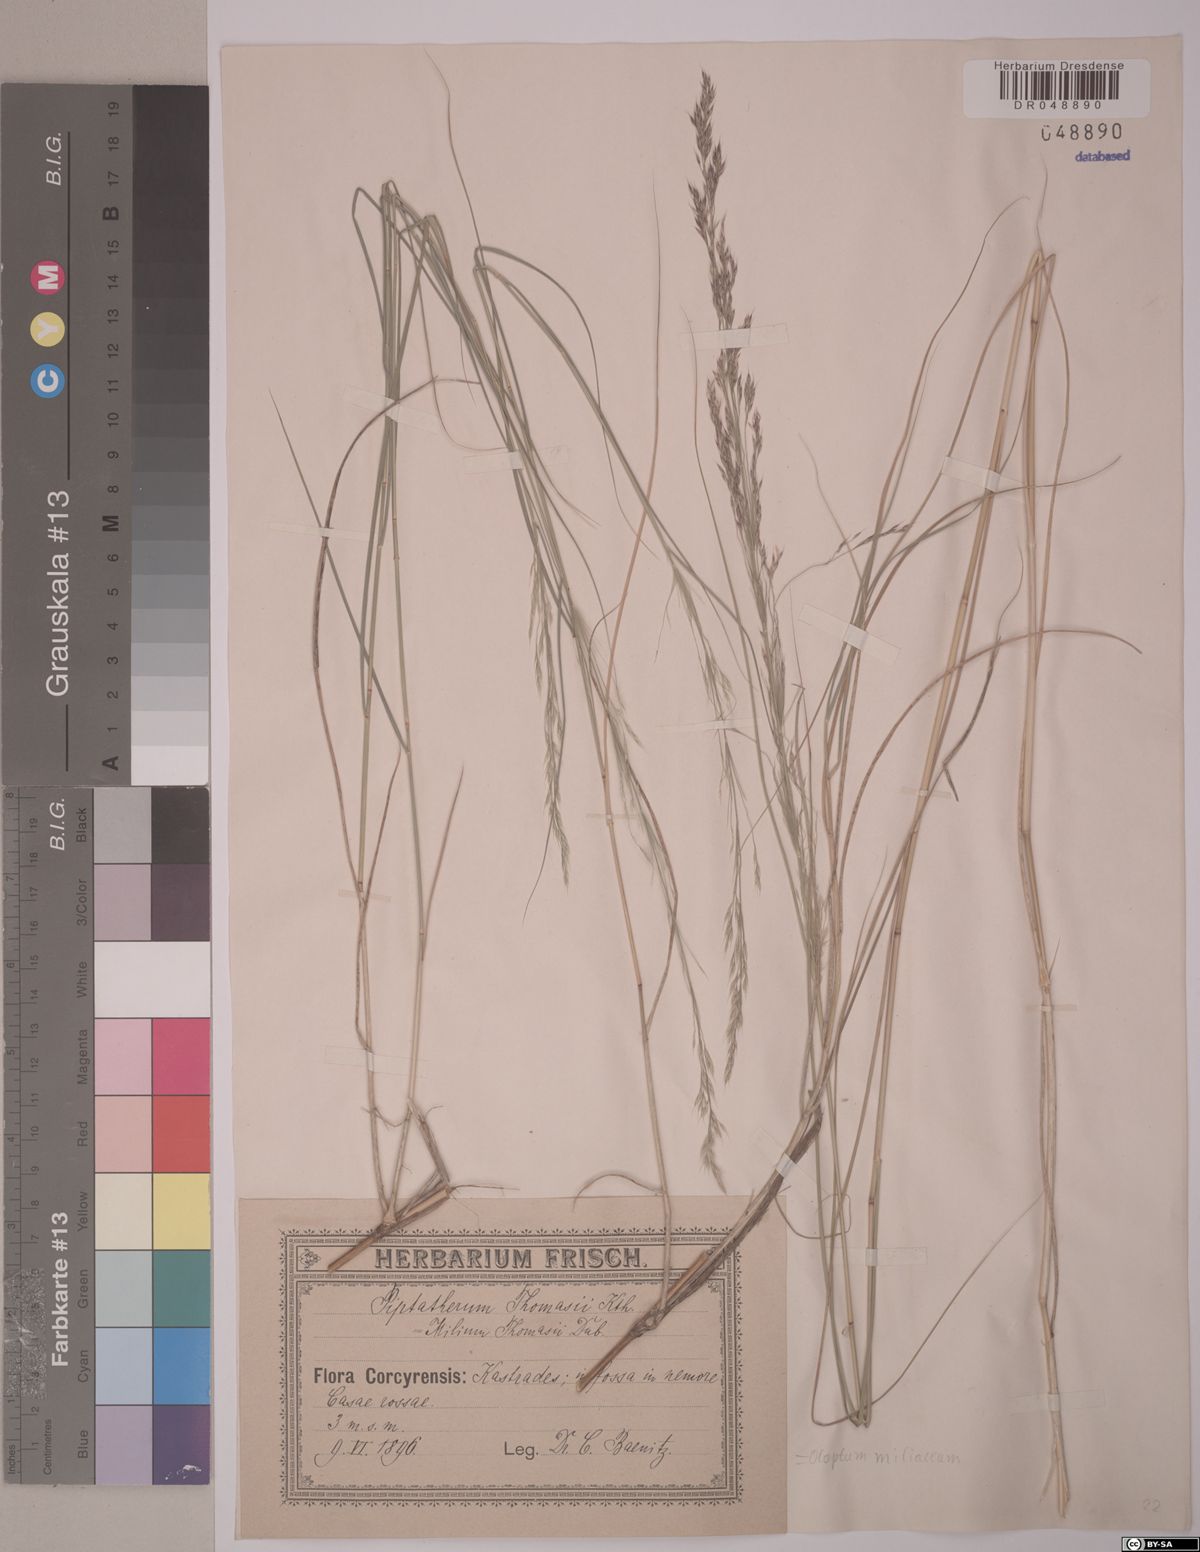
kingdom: Plantae
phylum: Tracheophyta
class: Liliopsida
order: Poales
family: Poaceae
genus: Oloptum
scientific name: Oloptum miliaceum
